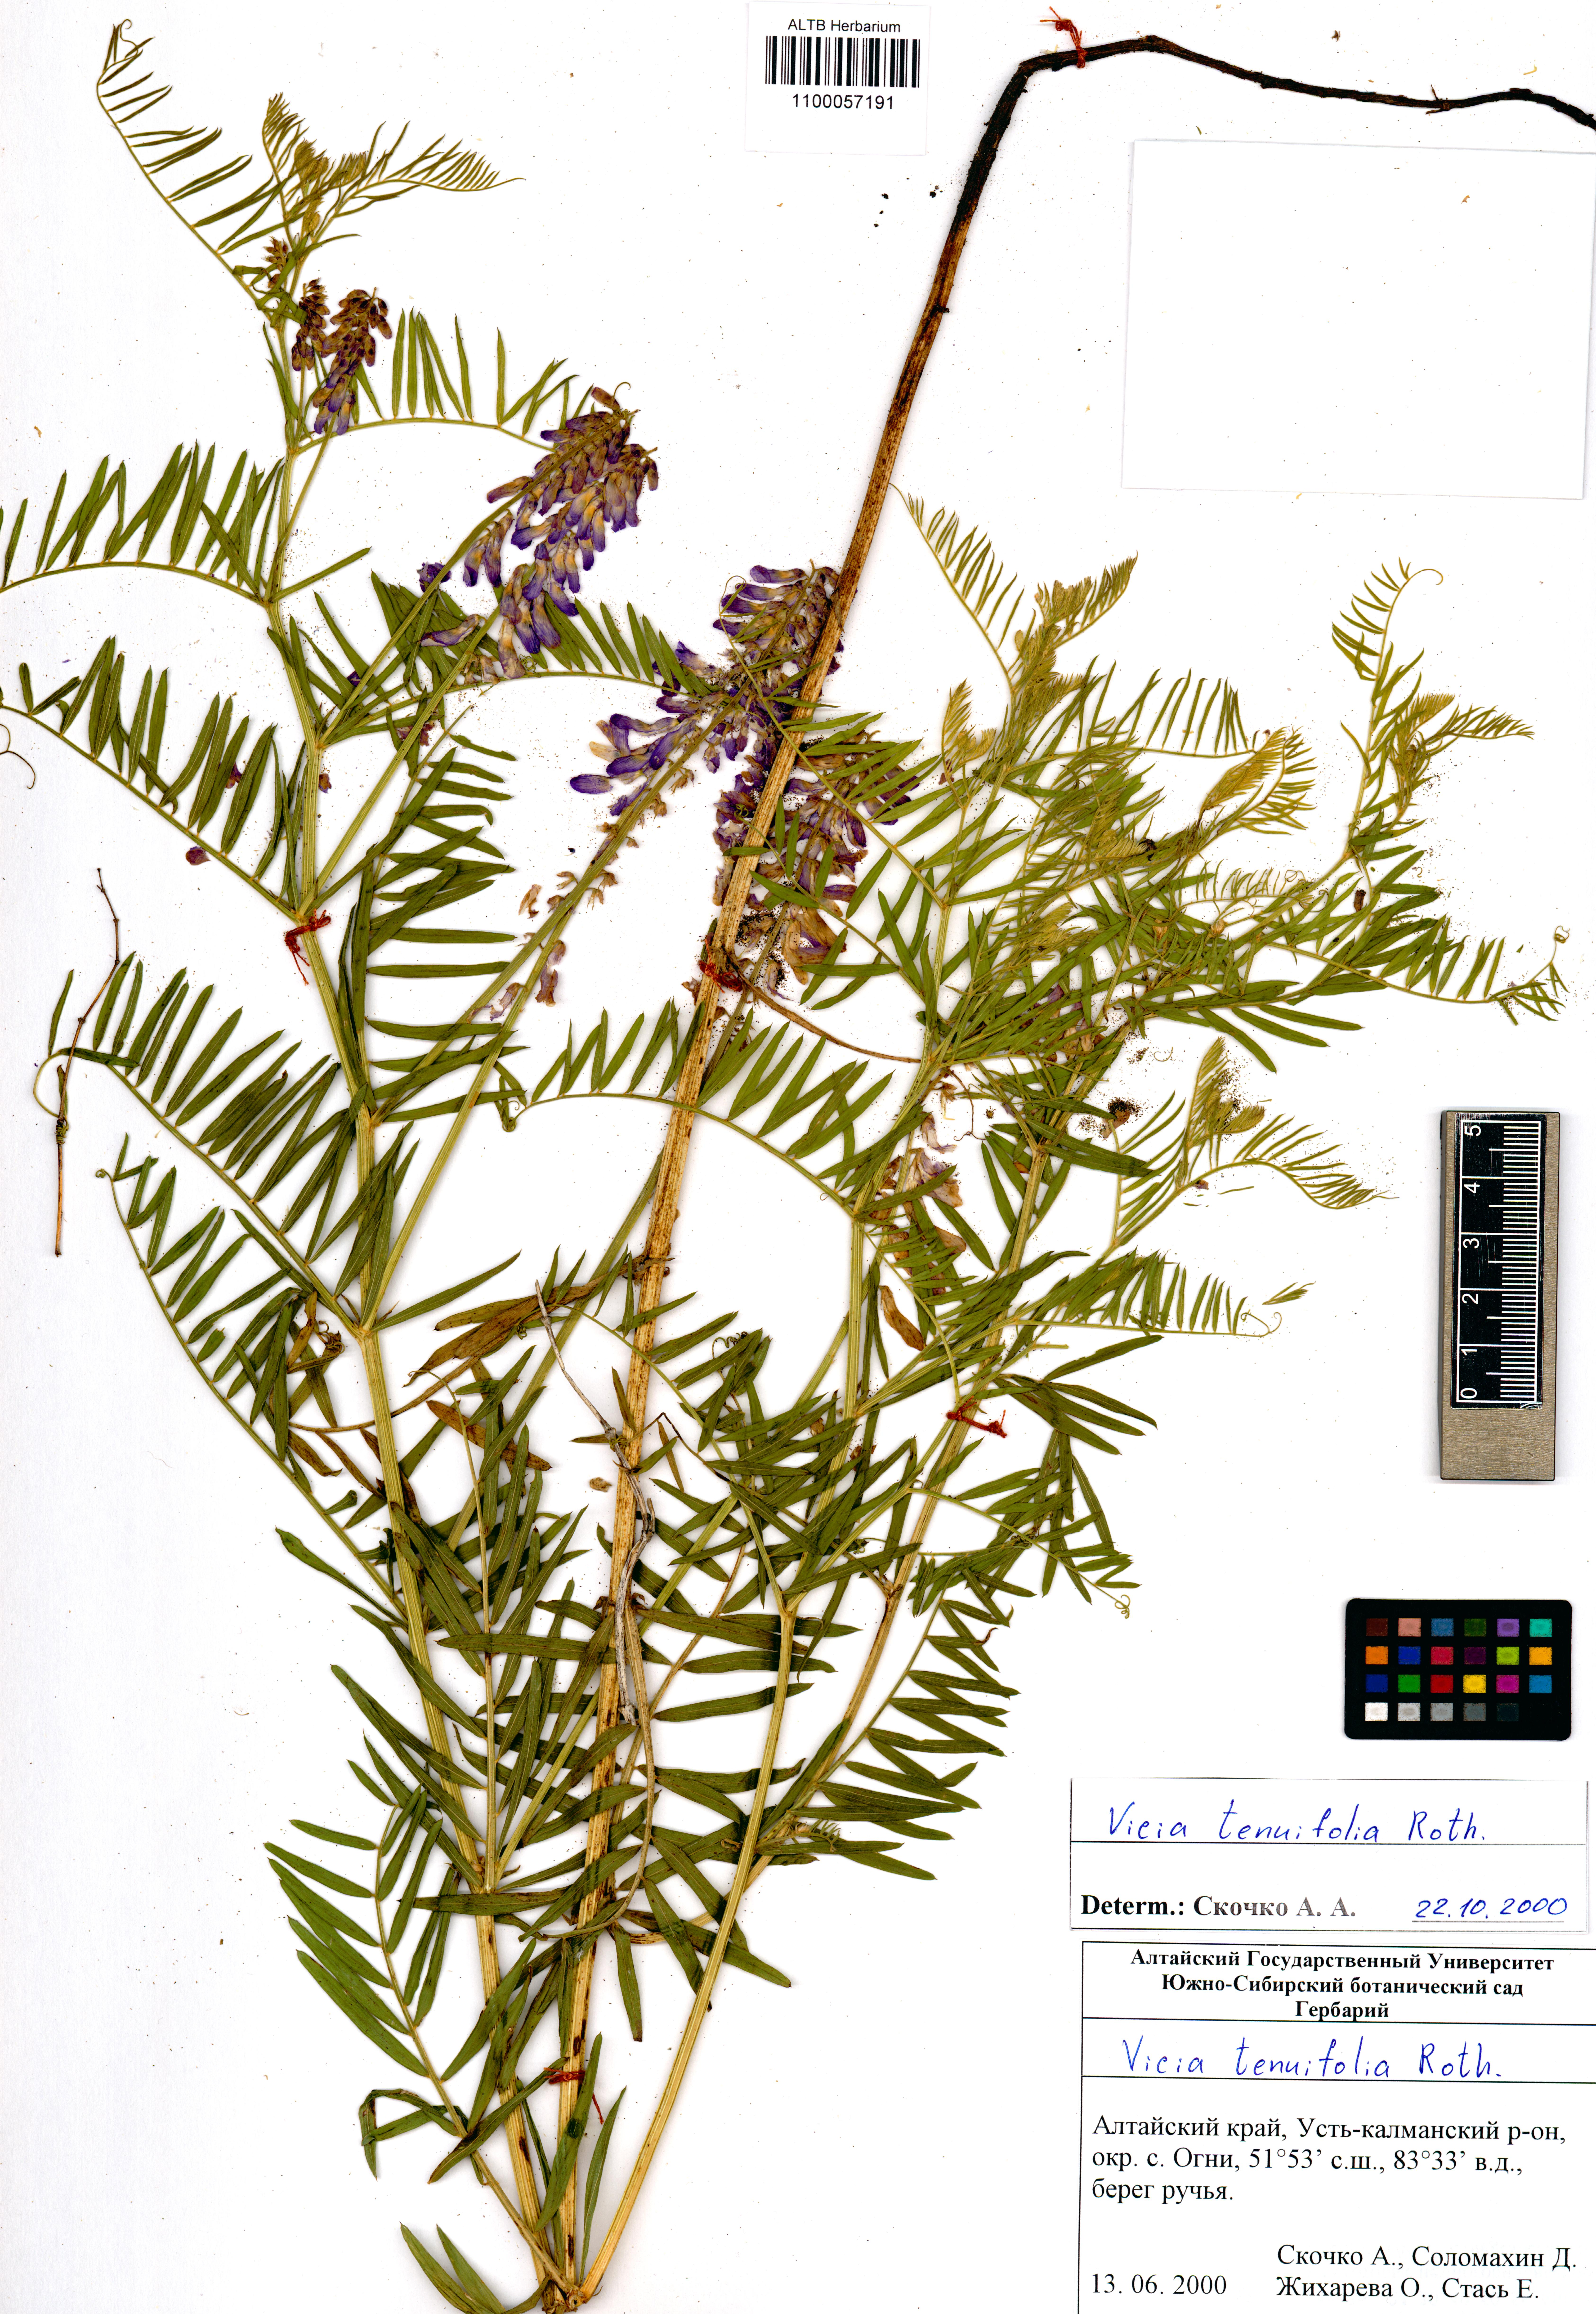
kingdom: Plantae
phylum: Tracheophyta
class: Magnoliopsida
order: Fabales
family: Fabaceae
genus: Vicia
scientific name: Vicia tenuifolia
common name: Fine-leaved vetch
